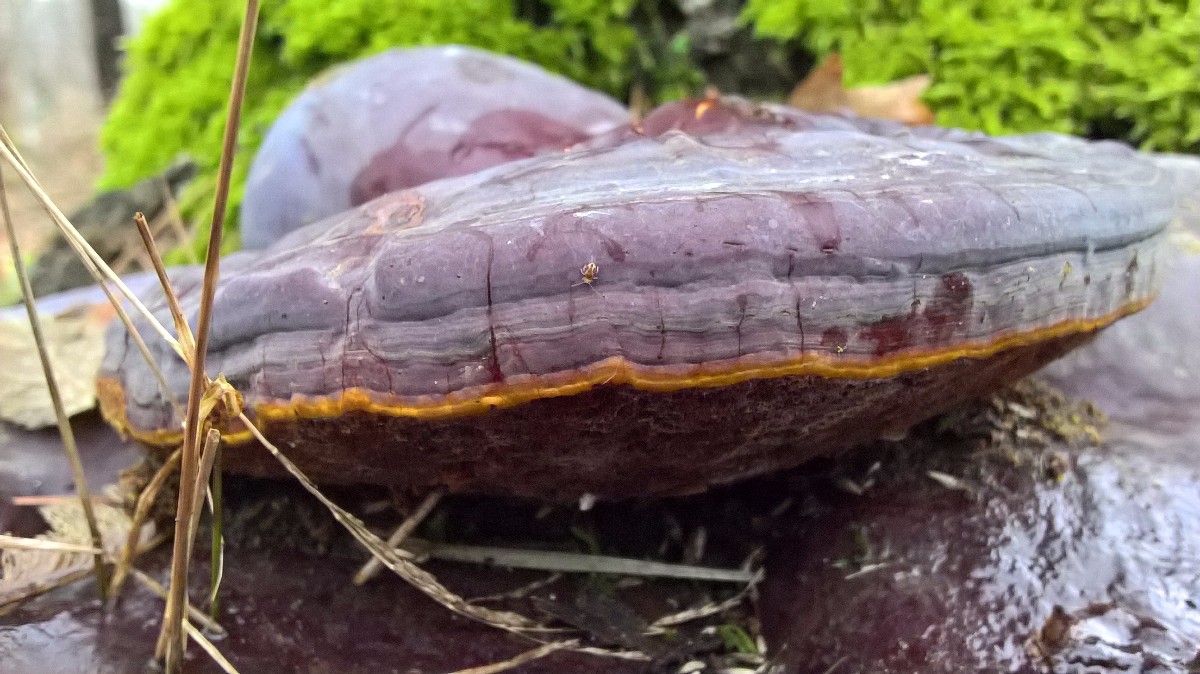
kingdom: Fungi
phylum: Basidiomycota
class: Agaricomycetes
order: Polyporales
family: Polyporaceae
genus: Ganoderma
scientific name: Ganoderma resinaceum
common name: gyldenbrun lakporesvamp
